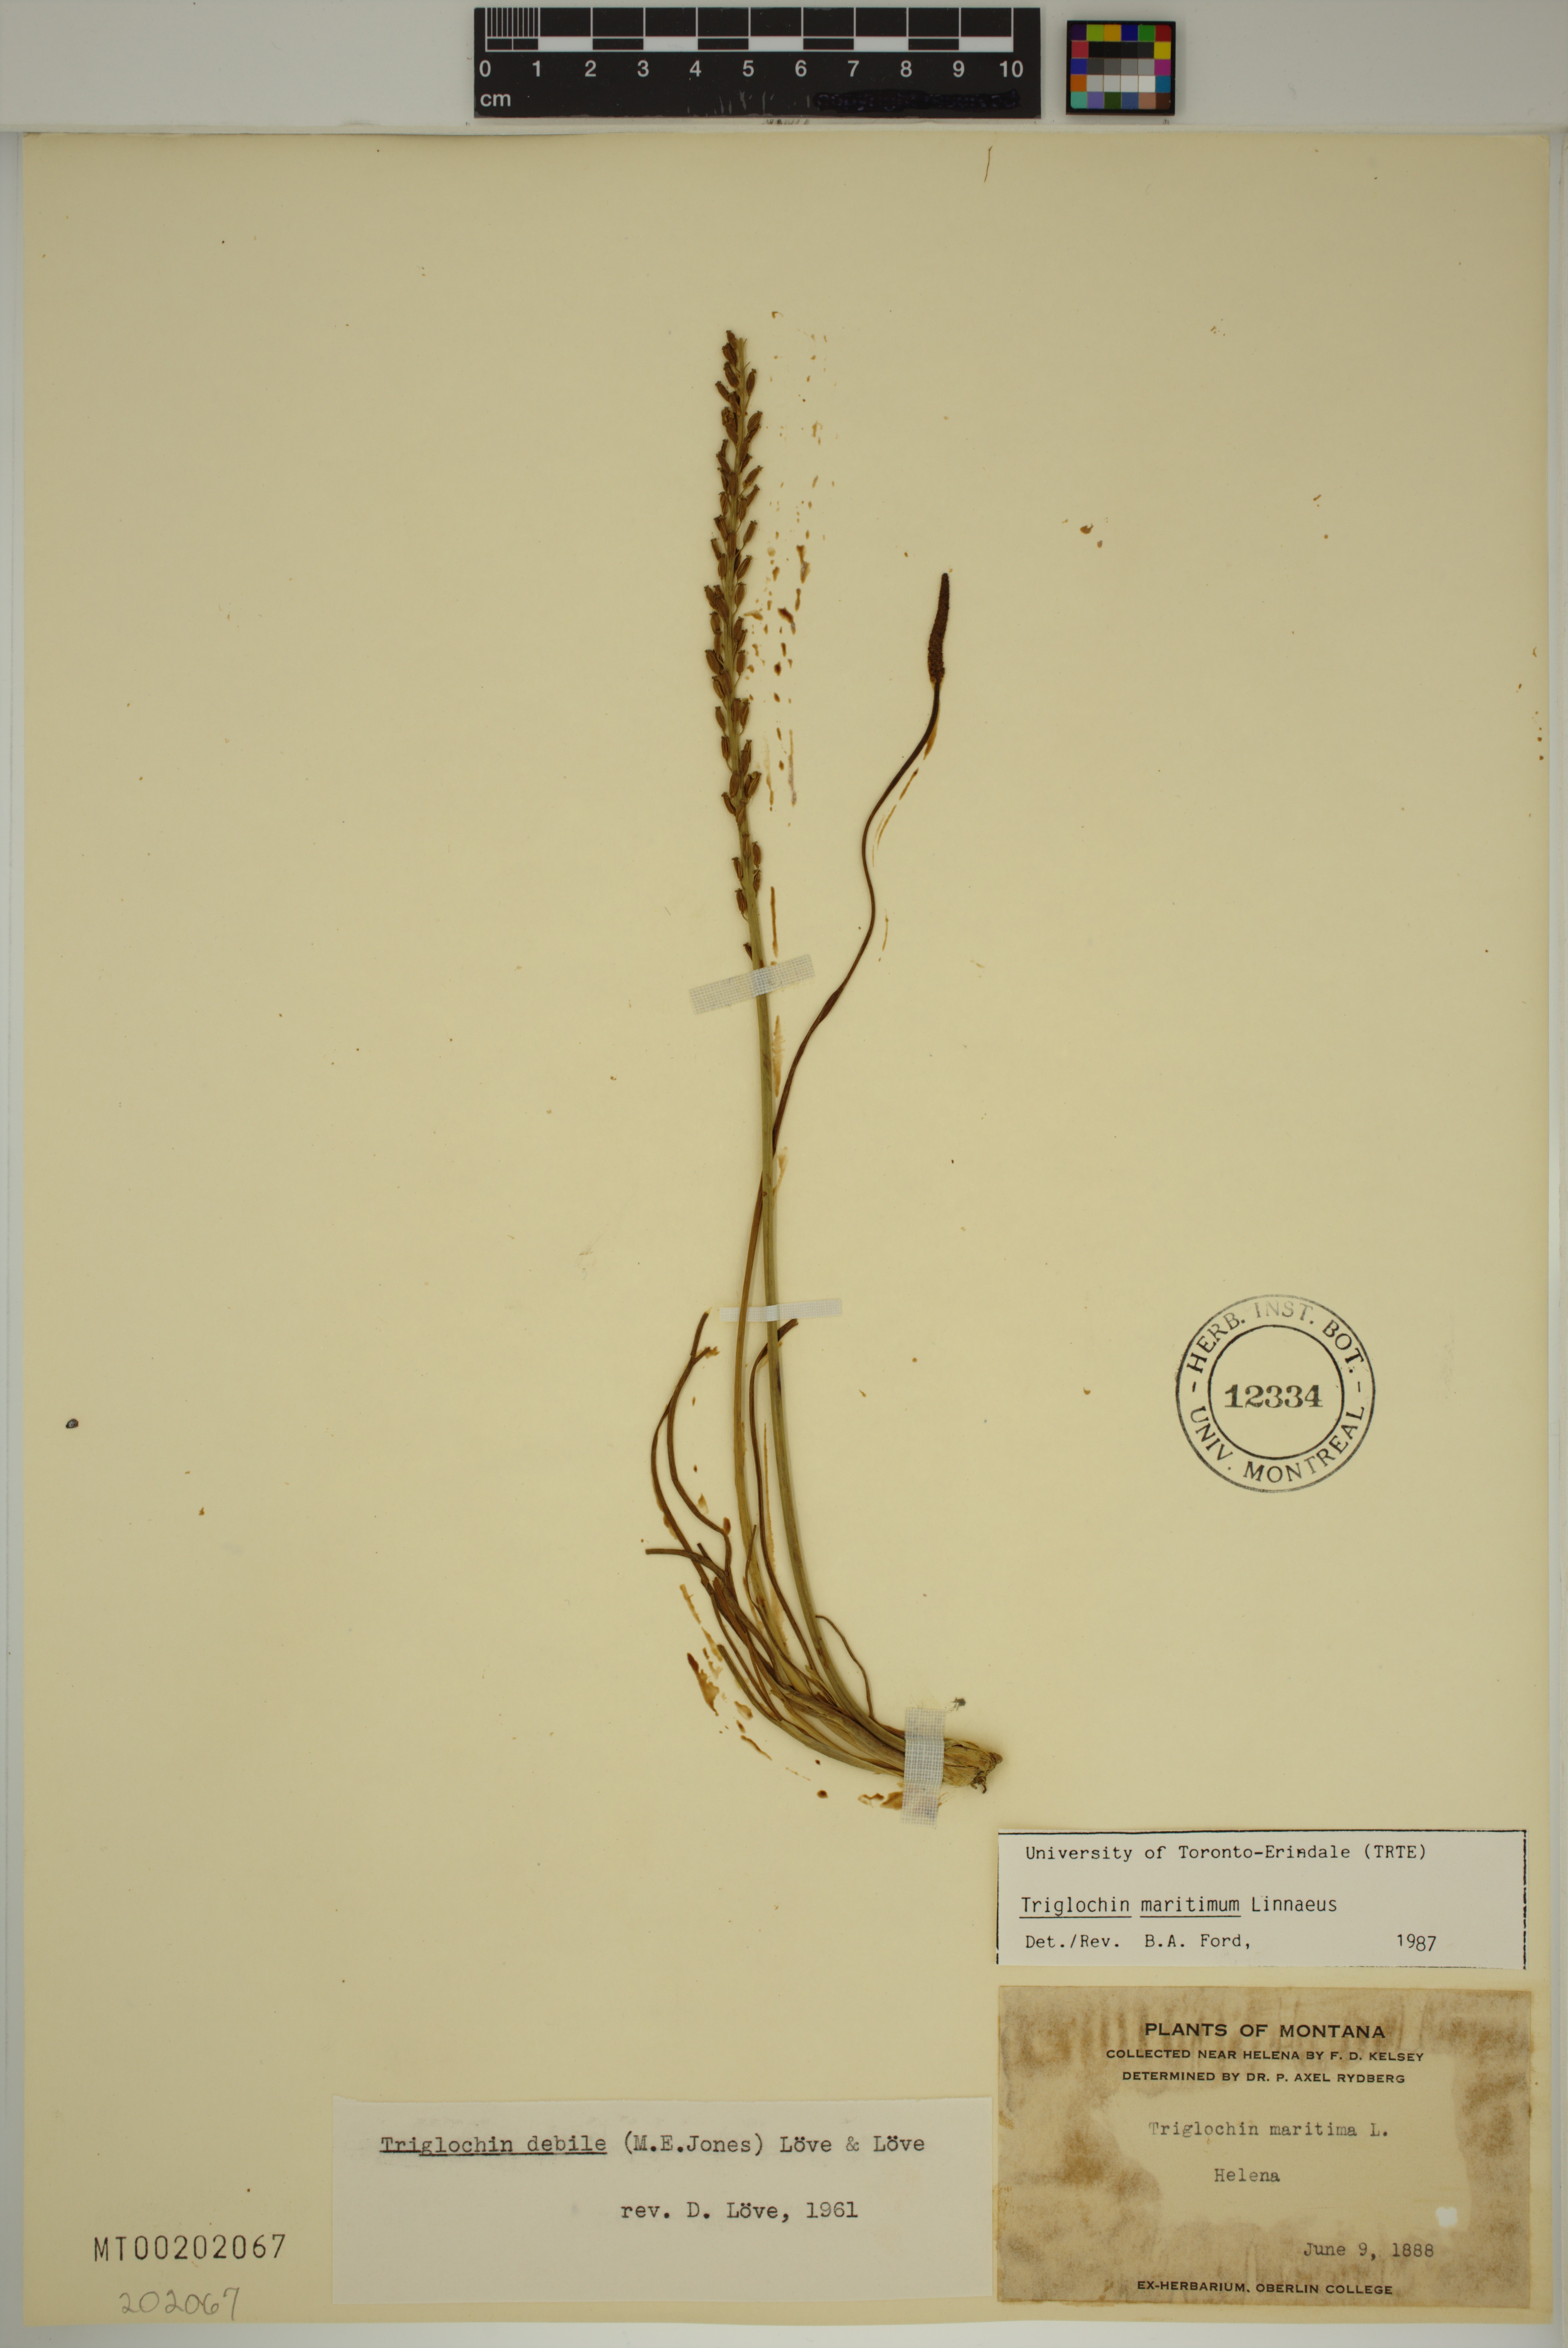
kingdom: Plantae
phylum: Tracheophyta
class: Liliopsida
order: Alismatales
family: Juncaginaceae
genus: Triglochin
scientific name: Triglochin maritima
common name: Sea arrowgrass
